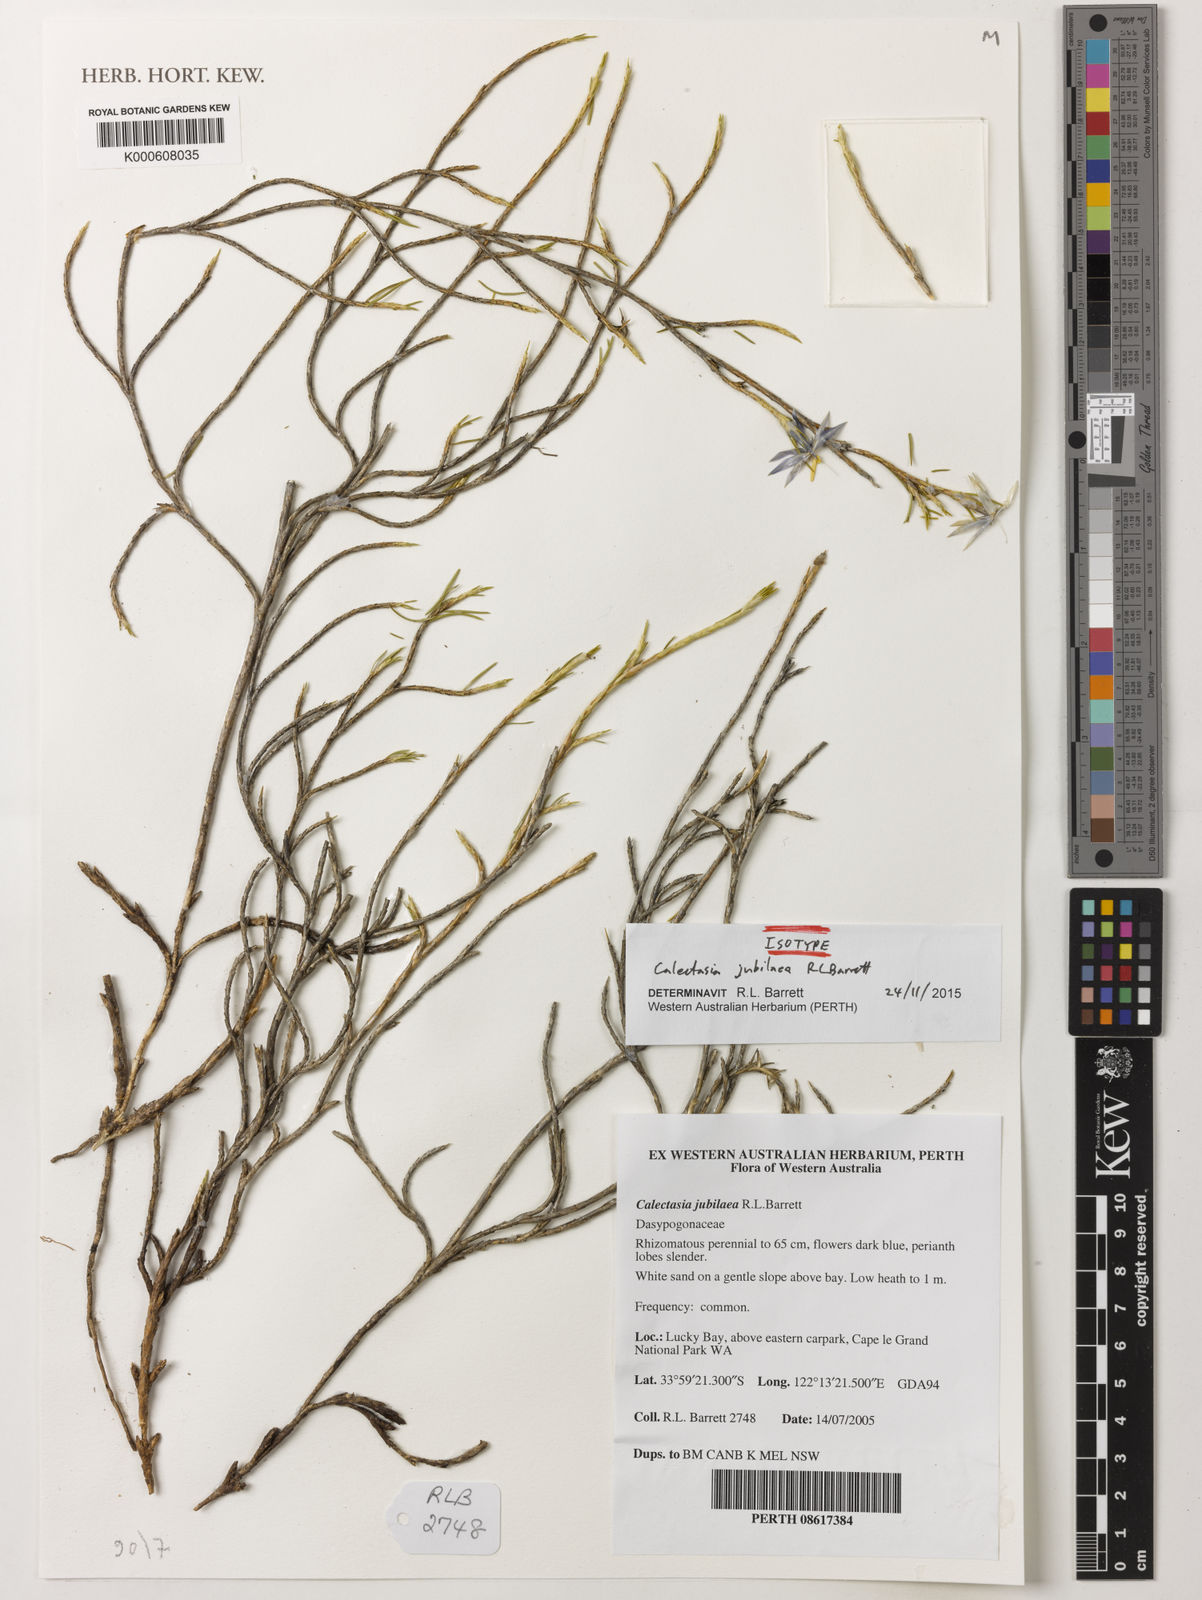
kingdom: Plantae
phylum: Tracheophyta
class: Liliopsida
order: Arecales
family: Dasypogonaceae
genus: Calectasia
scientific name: Calectasia jubilaea
